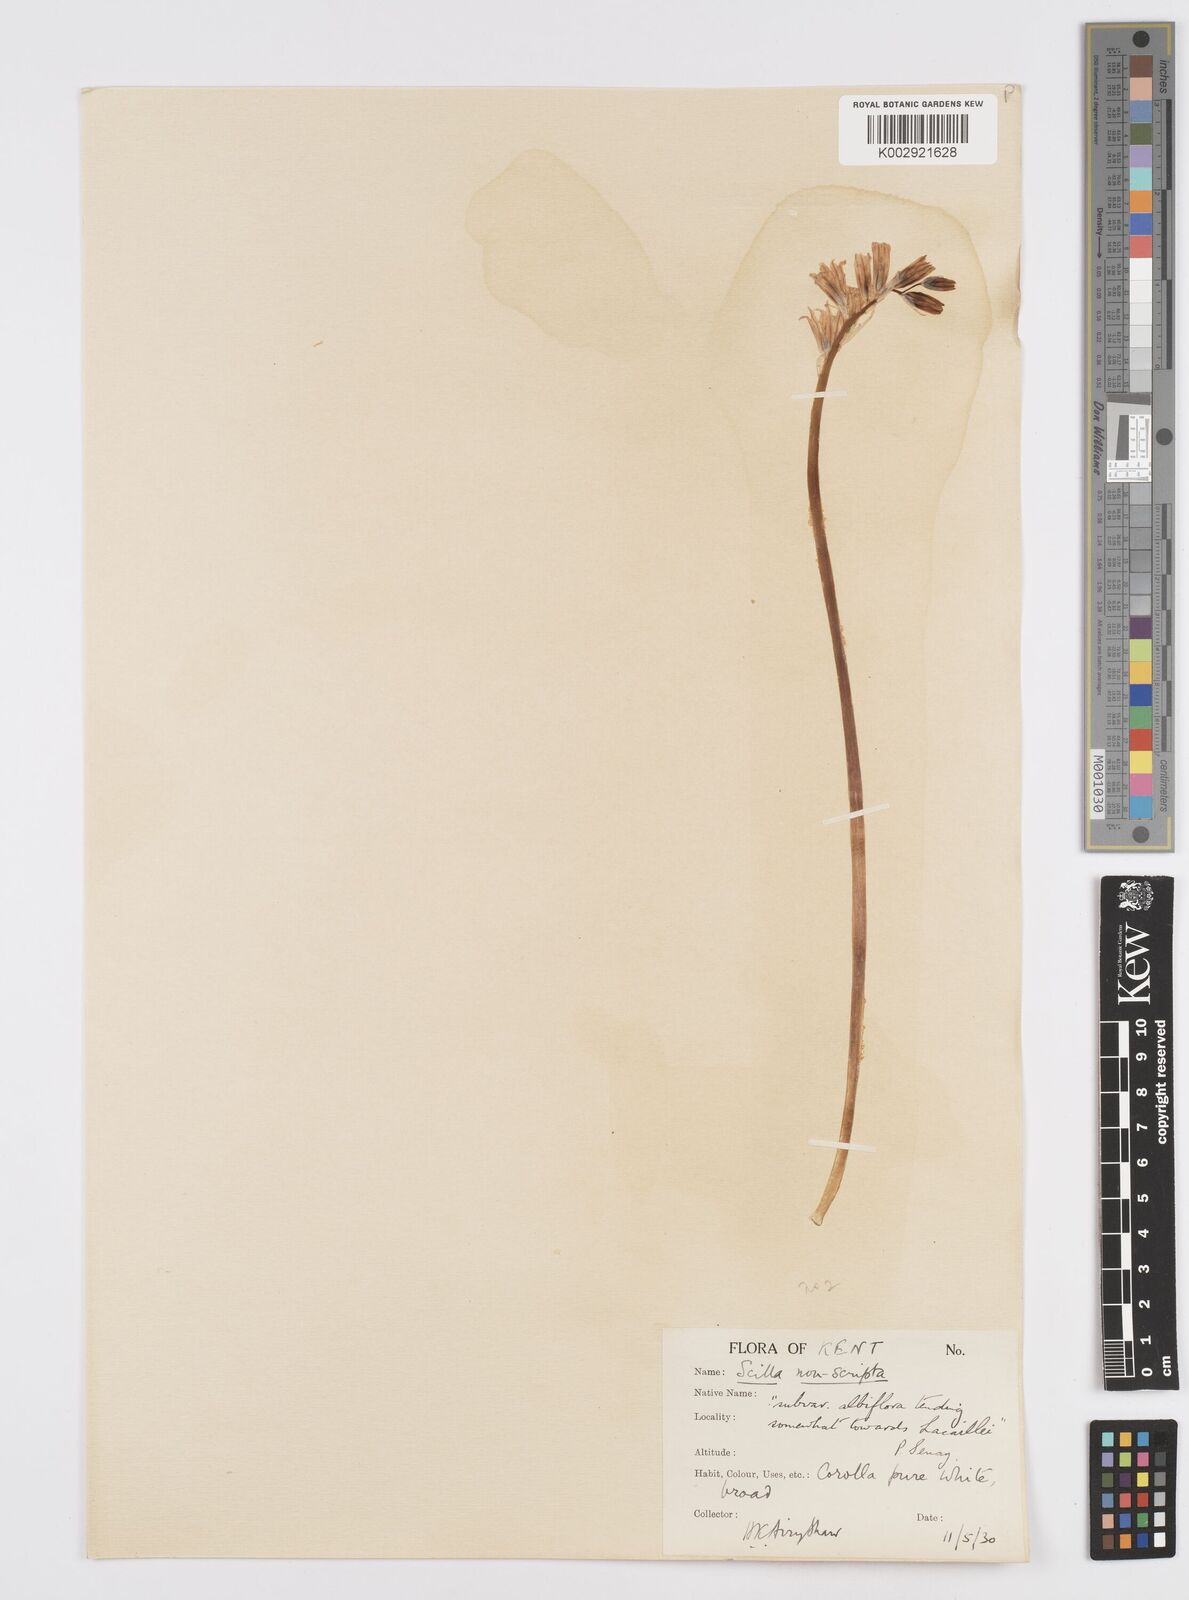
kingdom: Plantae
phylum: Tracheophyta
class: Liliopsida
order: Asparagales
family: Asparagaceae
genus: Hyacinthoides
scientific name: Hyacinthoides non-scripta
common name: Bluebell
